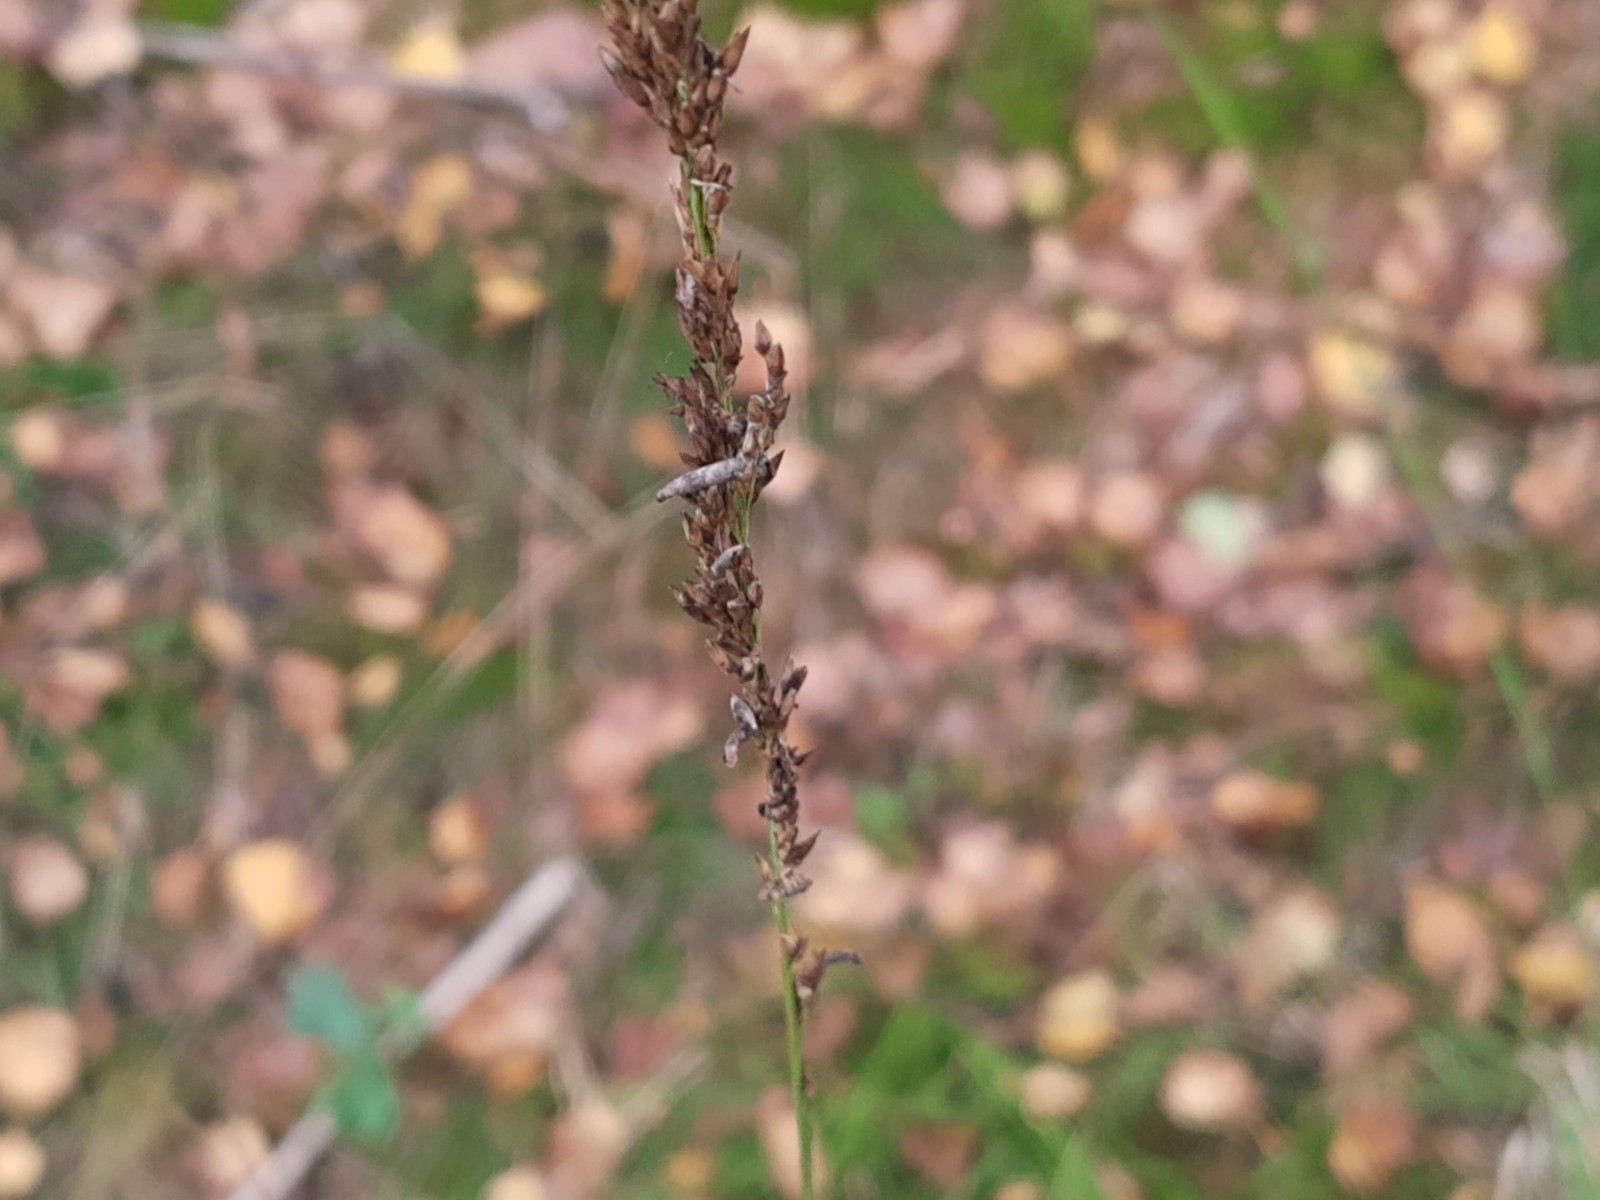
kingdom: Fungi
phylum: Ascomycota
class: Sordariomycetes
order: Hypocreales
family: Clavicipitaceae
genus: Claviceps
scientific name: Claviceps purpurea
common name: almindelig meldrøjer
